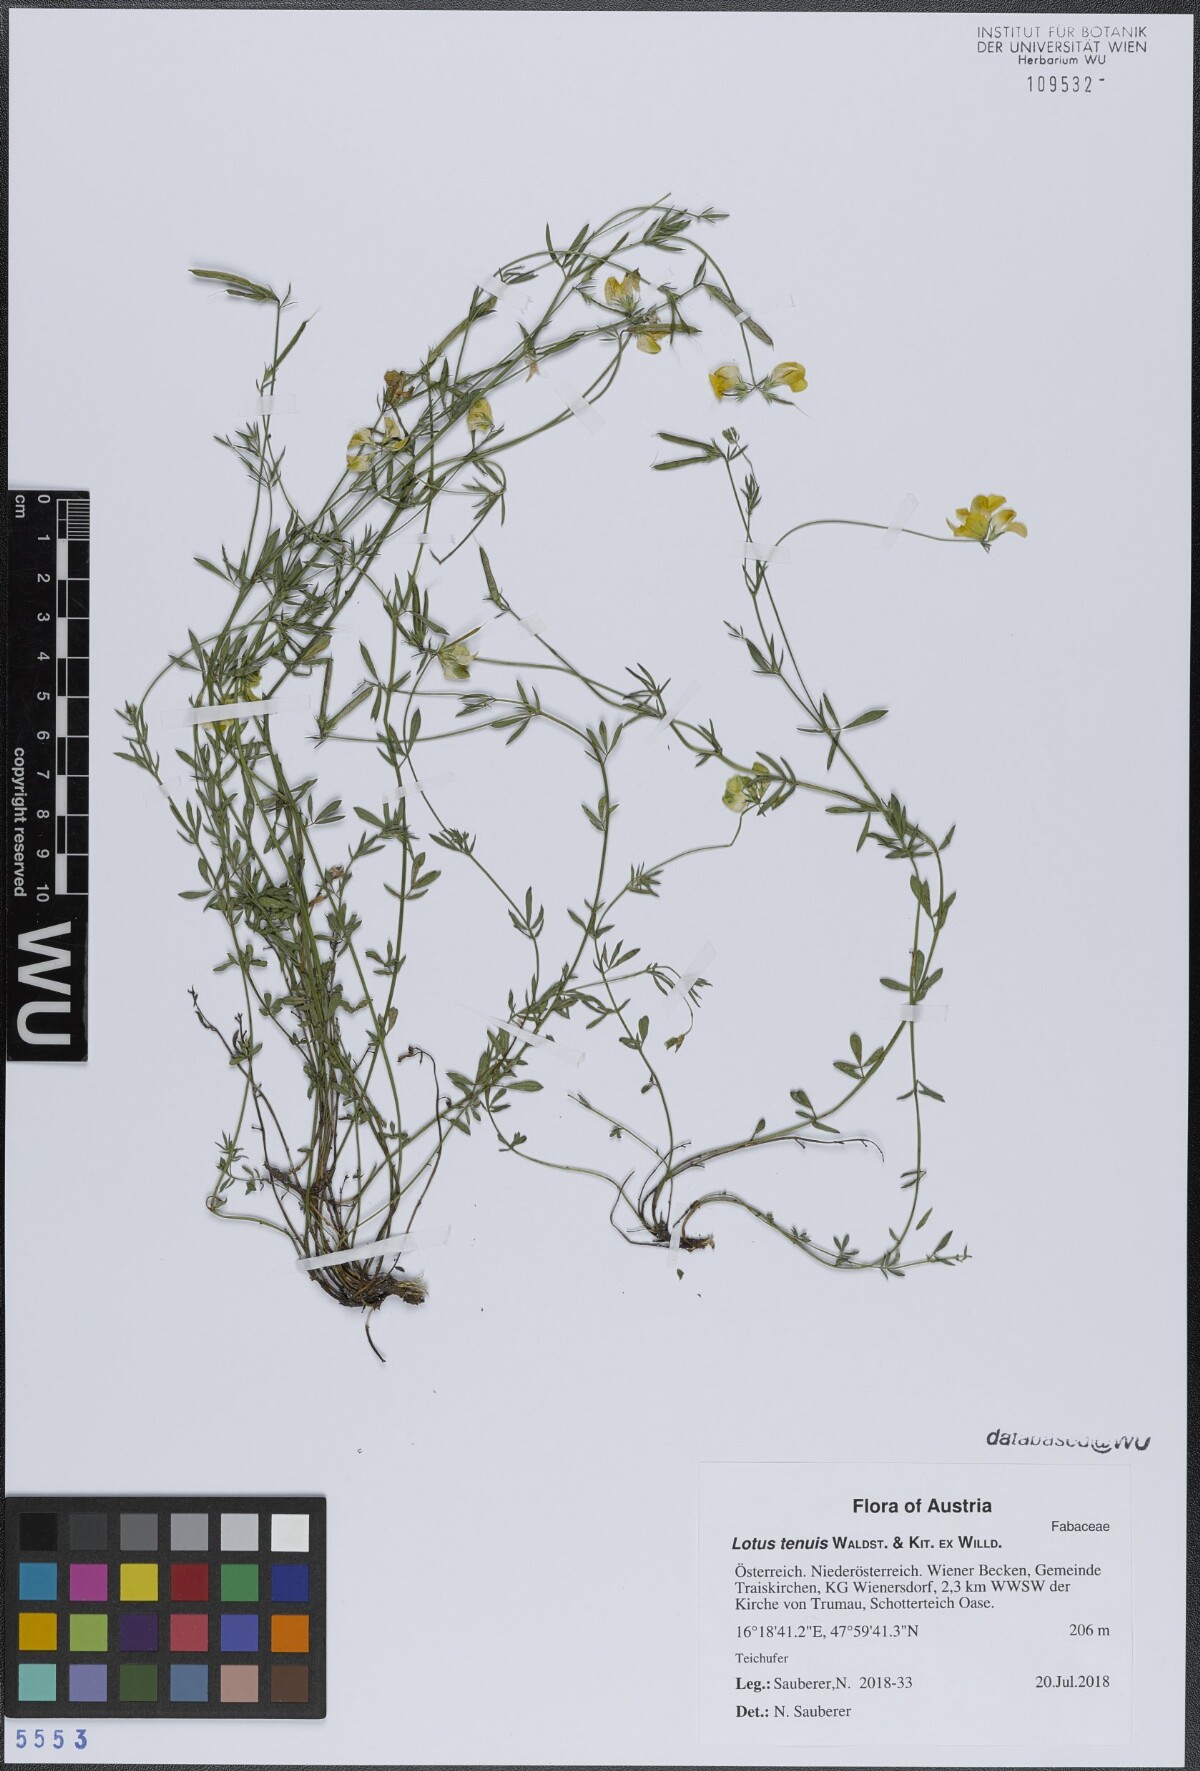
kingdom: Plantae
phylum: Tracheophyta
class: Magnoliopsida
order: Fabales
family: Fabaceae
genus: Lotus
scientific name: Lotus tenuis
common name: Narrow-leaved bird's-foot-trefoil
